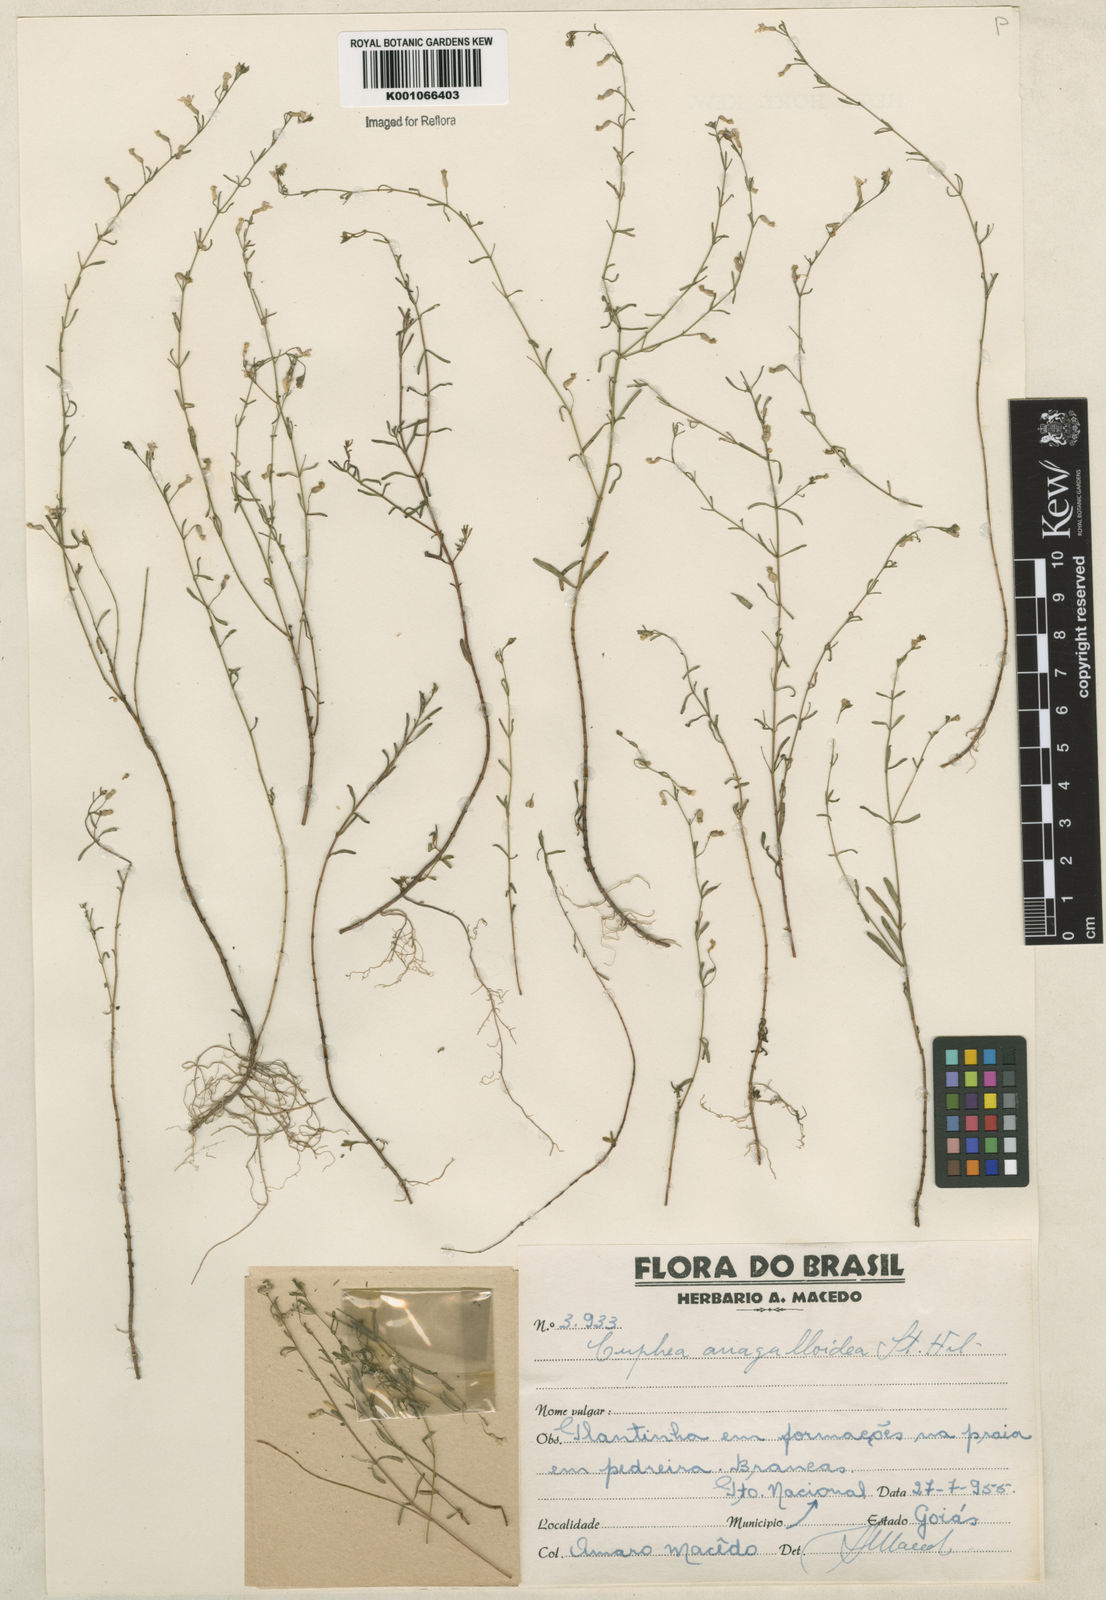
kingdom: Plantae
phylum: Tracheophyta
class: Magnoliopsida
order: Myrtales
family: Lythraceae
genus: Cuphea
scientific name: Cuphea anagalloidea
